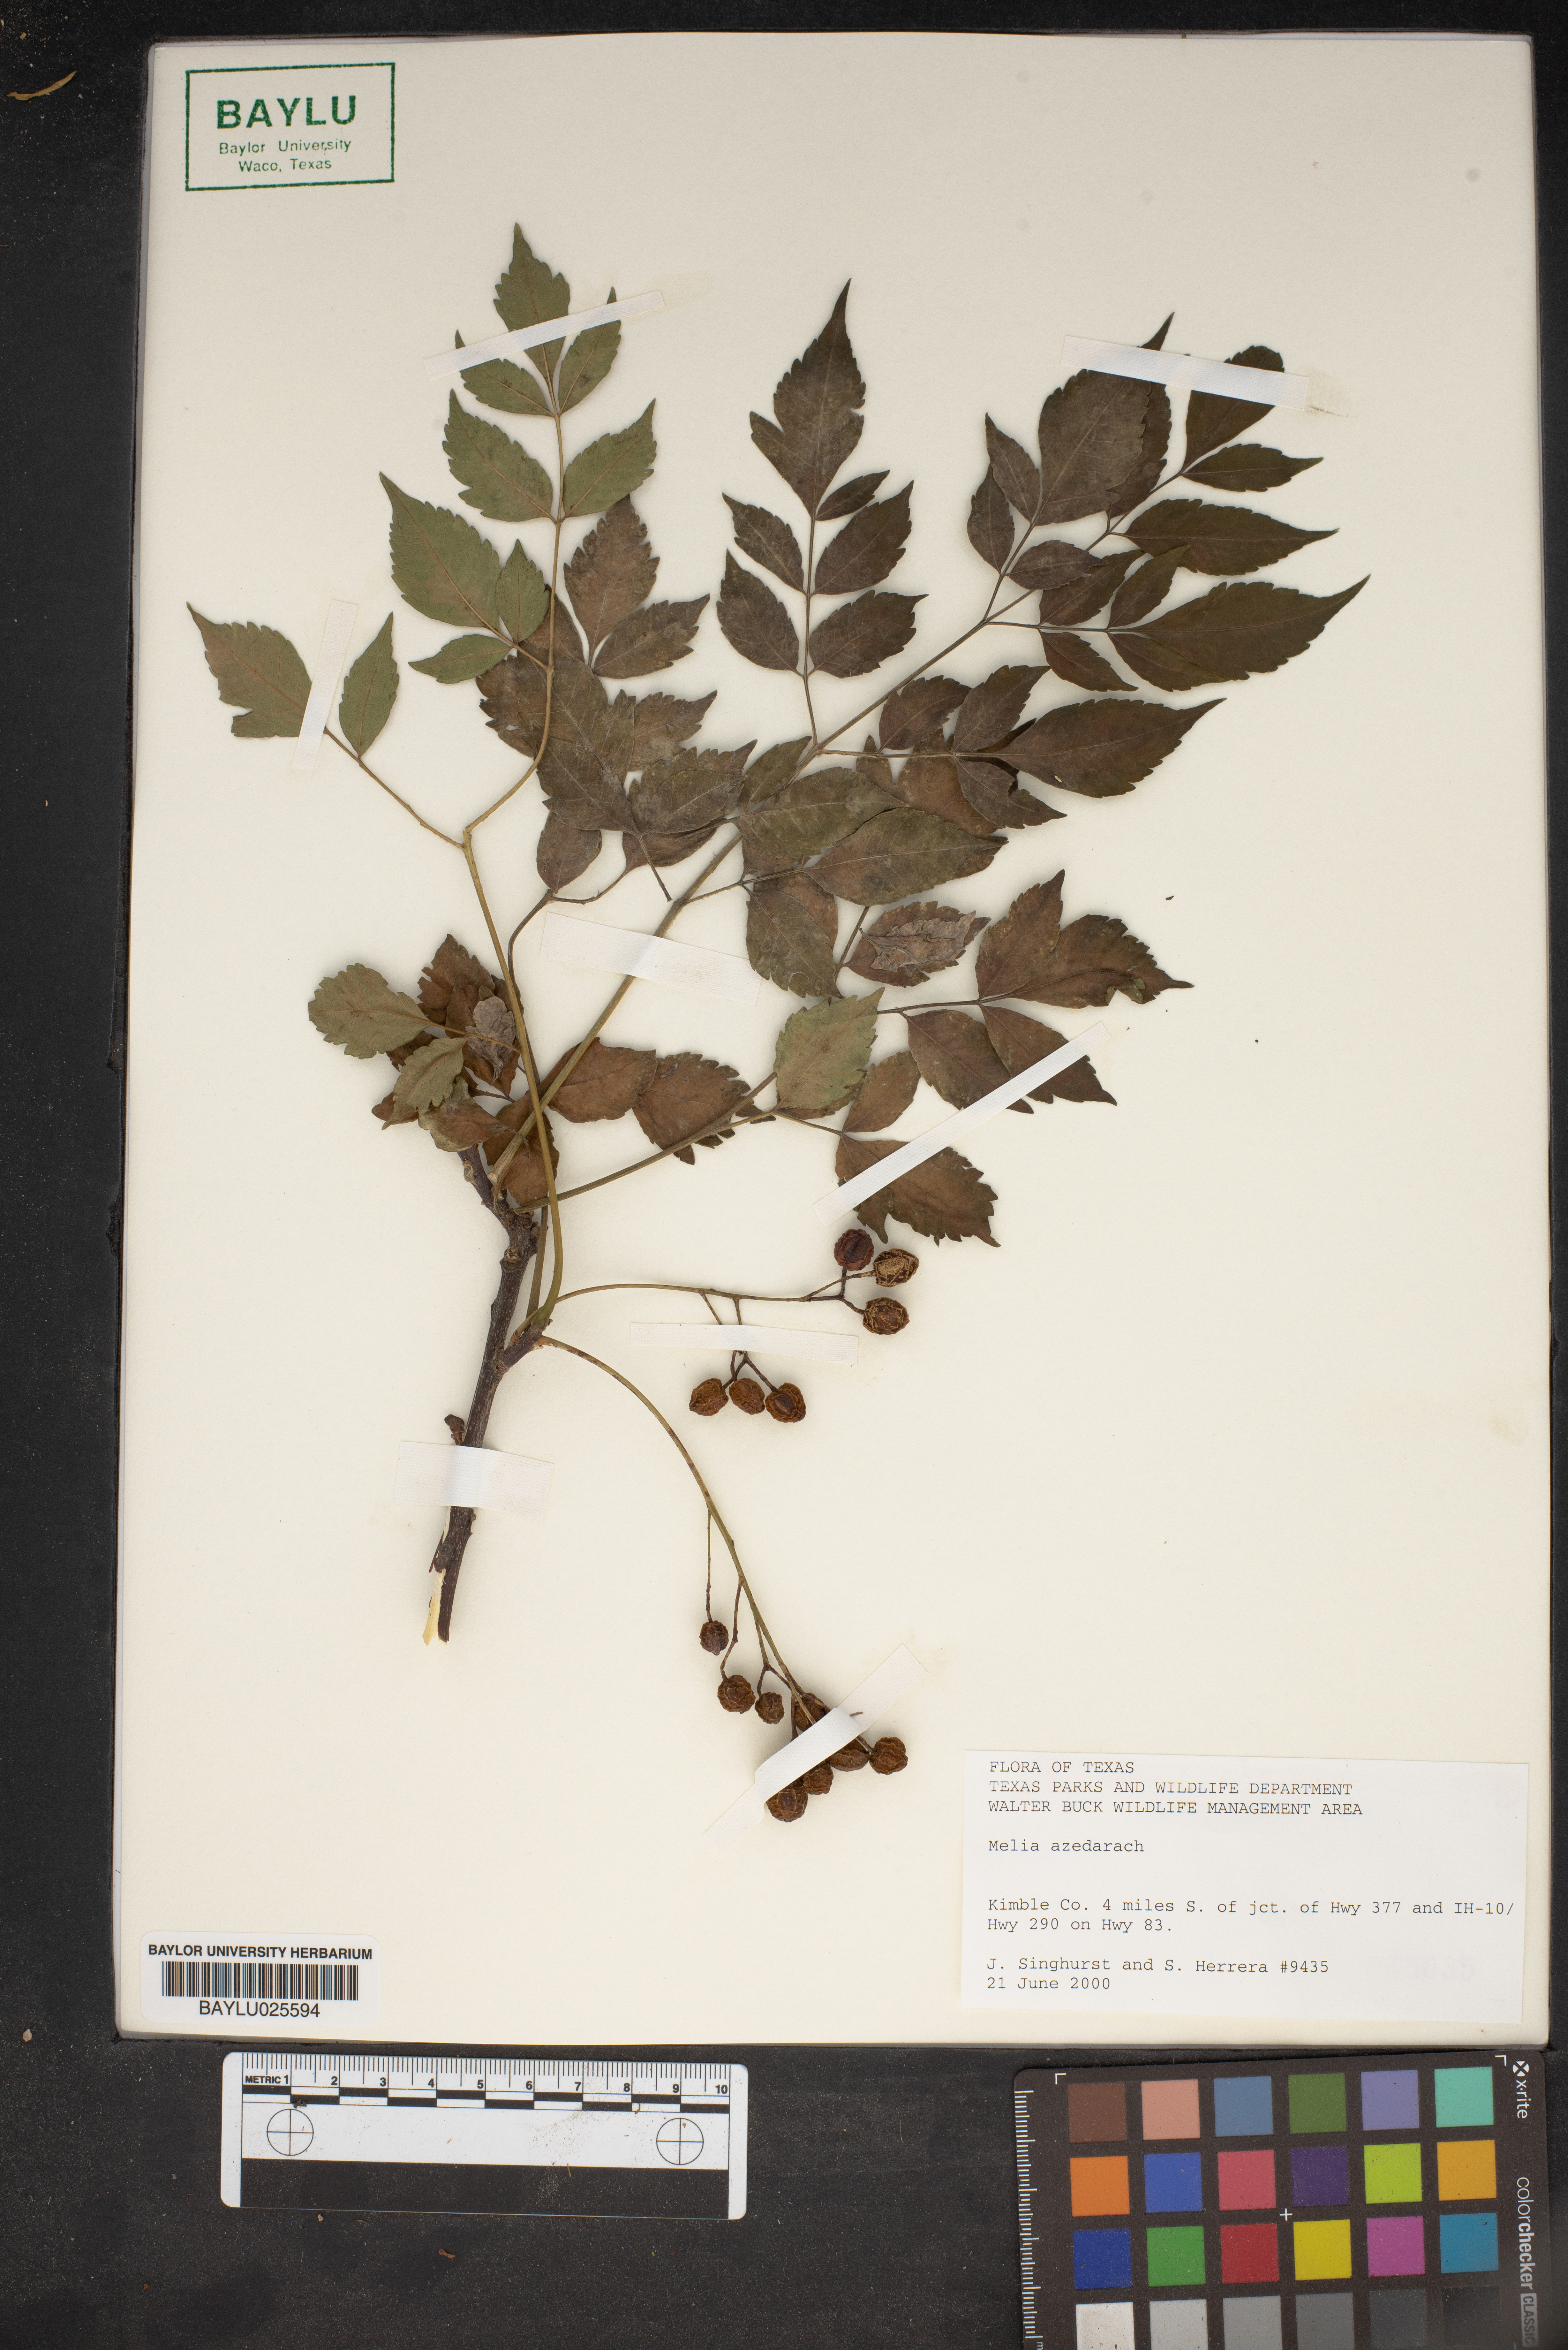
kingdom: Plantae
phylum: Tracheophyta
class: Magnoliopsida
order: Sapindales
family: Meliaceae
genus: Melia
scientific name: Melia azedarach
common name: Chinaberrytree
